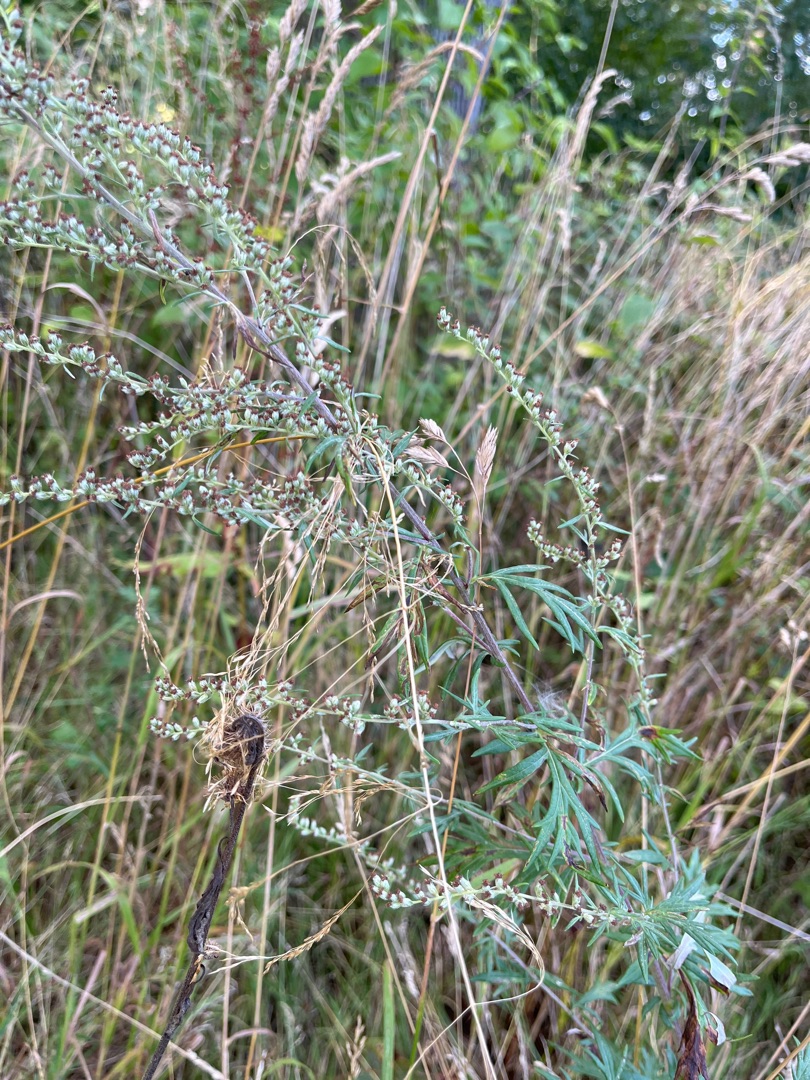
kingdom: Plantae
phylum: Tracheophyta
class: Magnoliopsida
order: Asterales
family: Asteraceae
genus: Artemisia
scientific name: Artemisia vulgaris
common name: Grå-bynke
